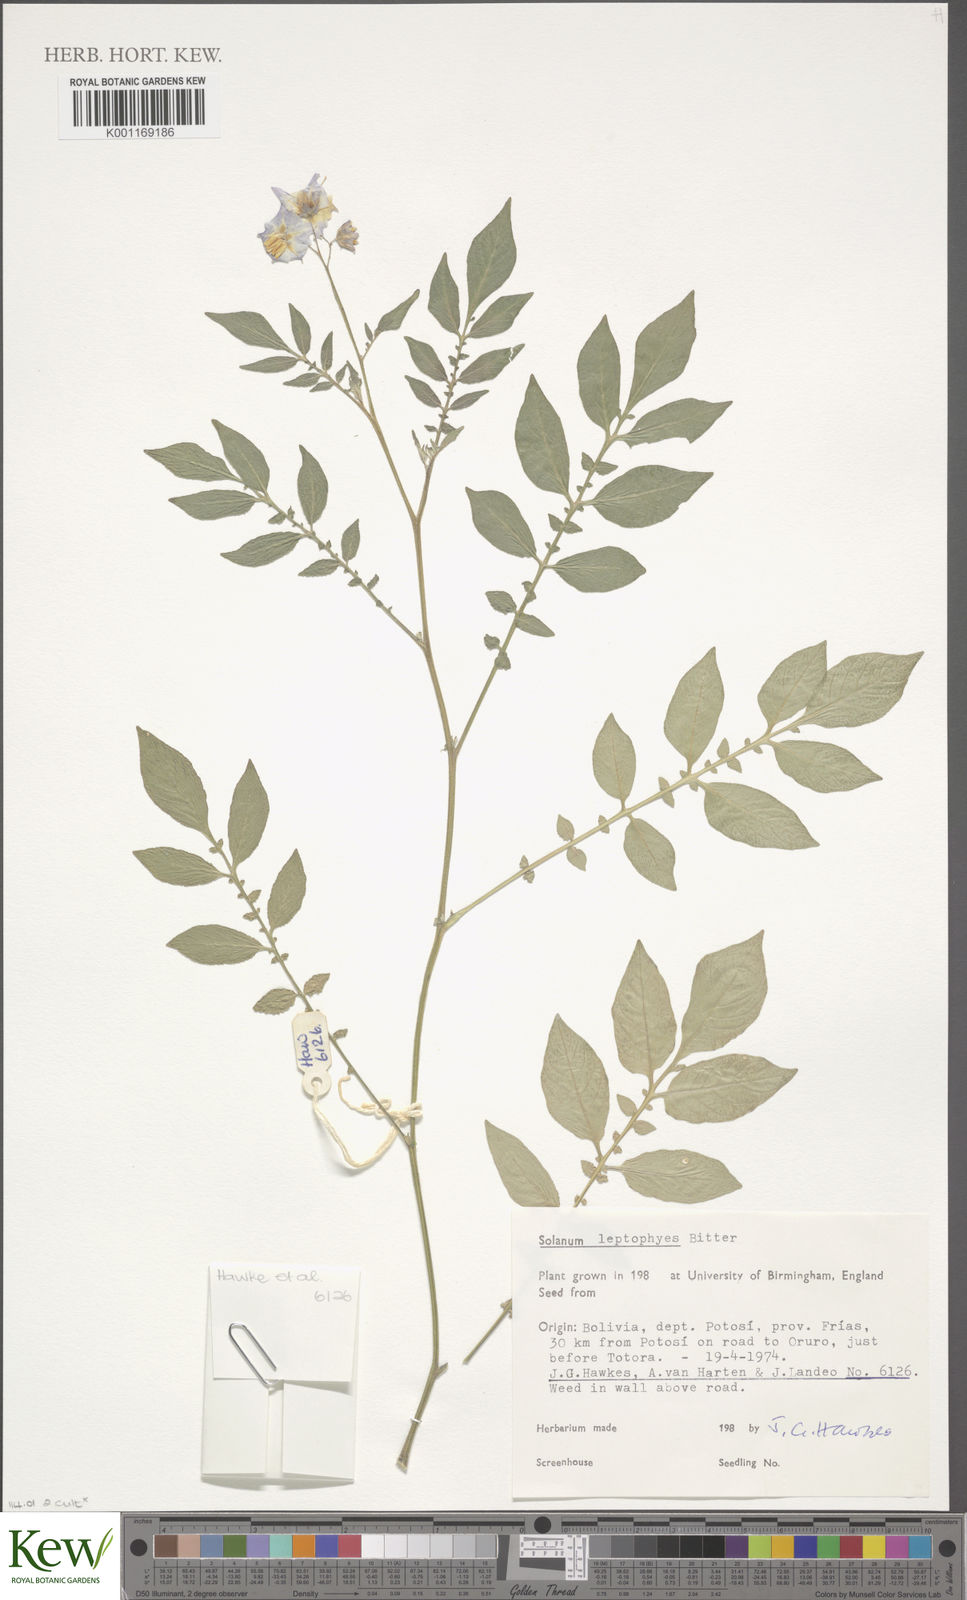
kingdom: Plantae
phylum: Tracheophyta
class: Magnoliopsida
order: Solanales
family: Solanaceae
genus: Solanum
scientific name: Solanum brevicaule
